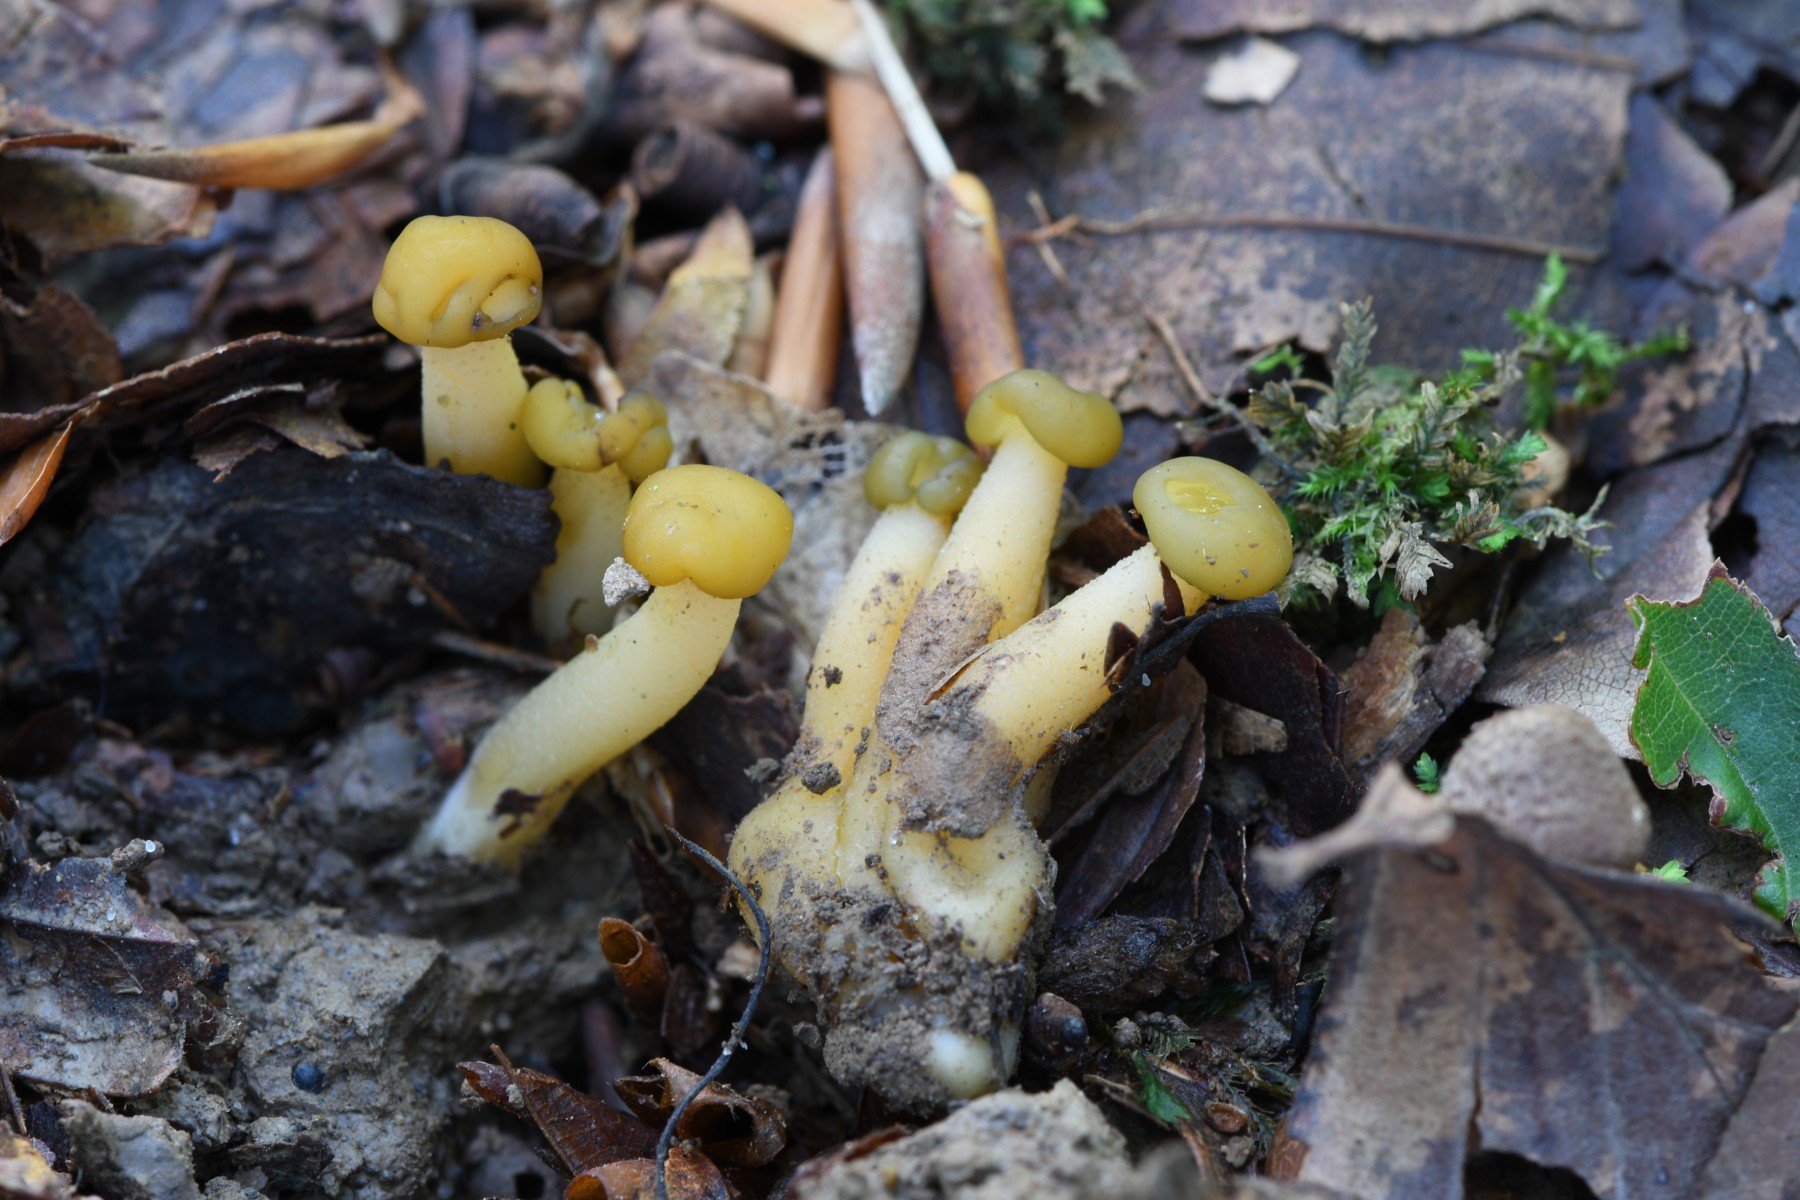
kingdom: Fungi
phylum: Ascomycota
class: Leotiomycetes
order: Leotiales
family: Leotiaceae
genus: Leotia
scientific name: Leotia lubrica
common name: ravsvamp
